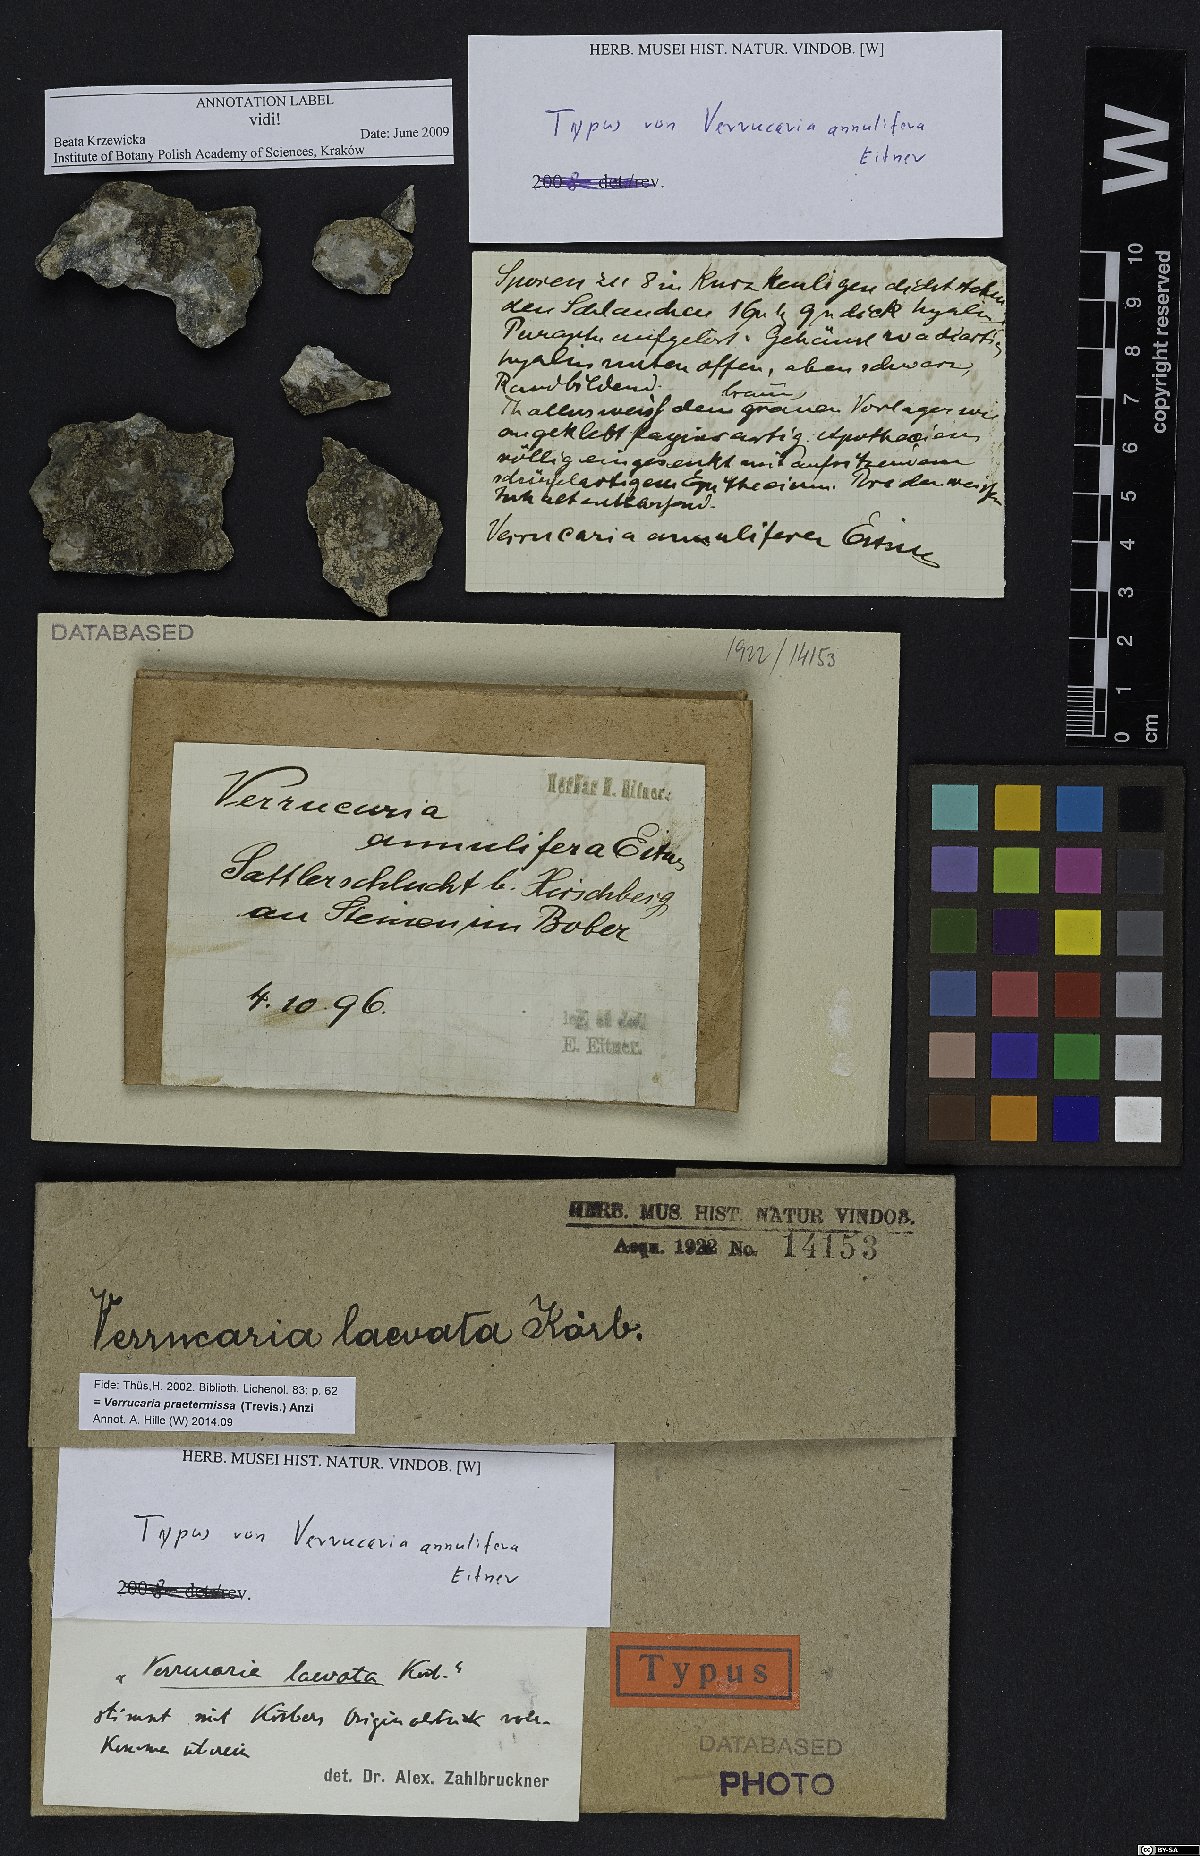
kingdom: Fungi
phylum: Ascomycota
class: Eurotiomycetes
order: Verrucariales
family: Verrucariaceae
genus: Verrucaria
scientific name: Verrucaria
